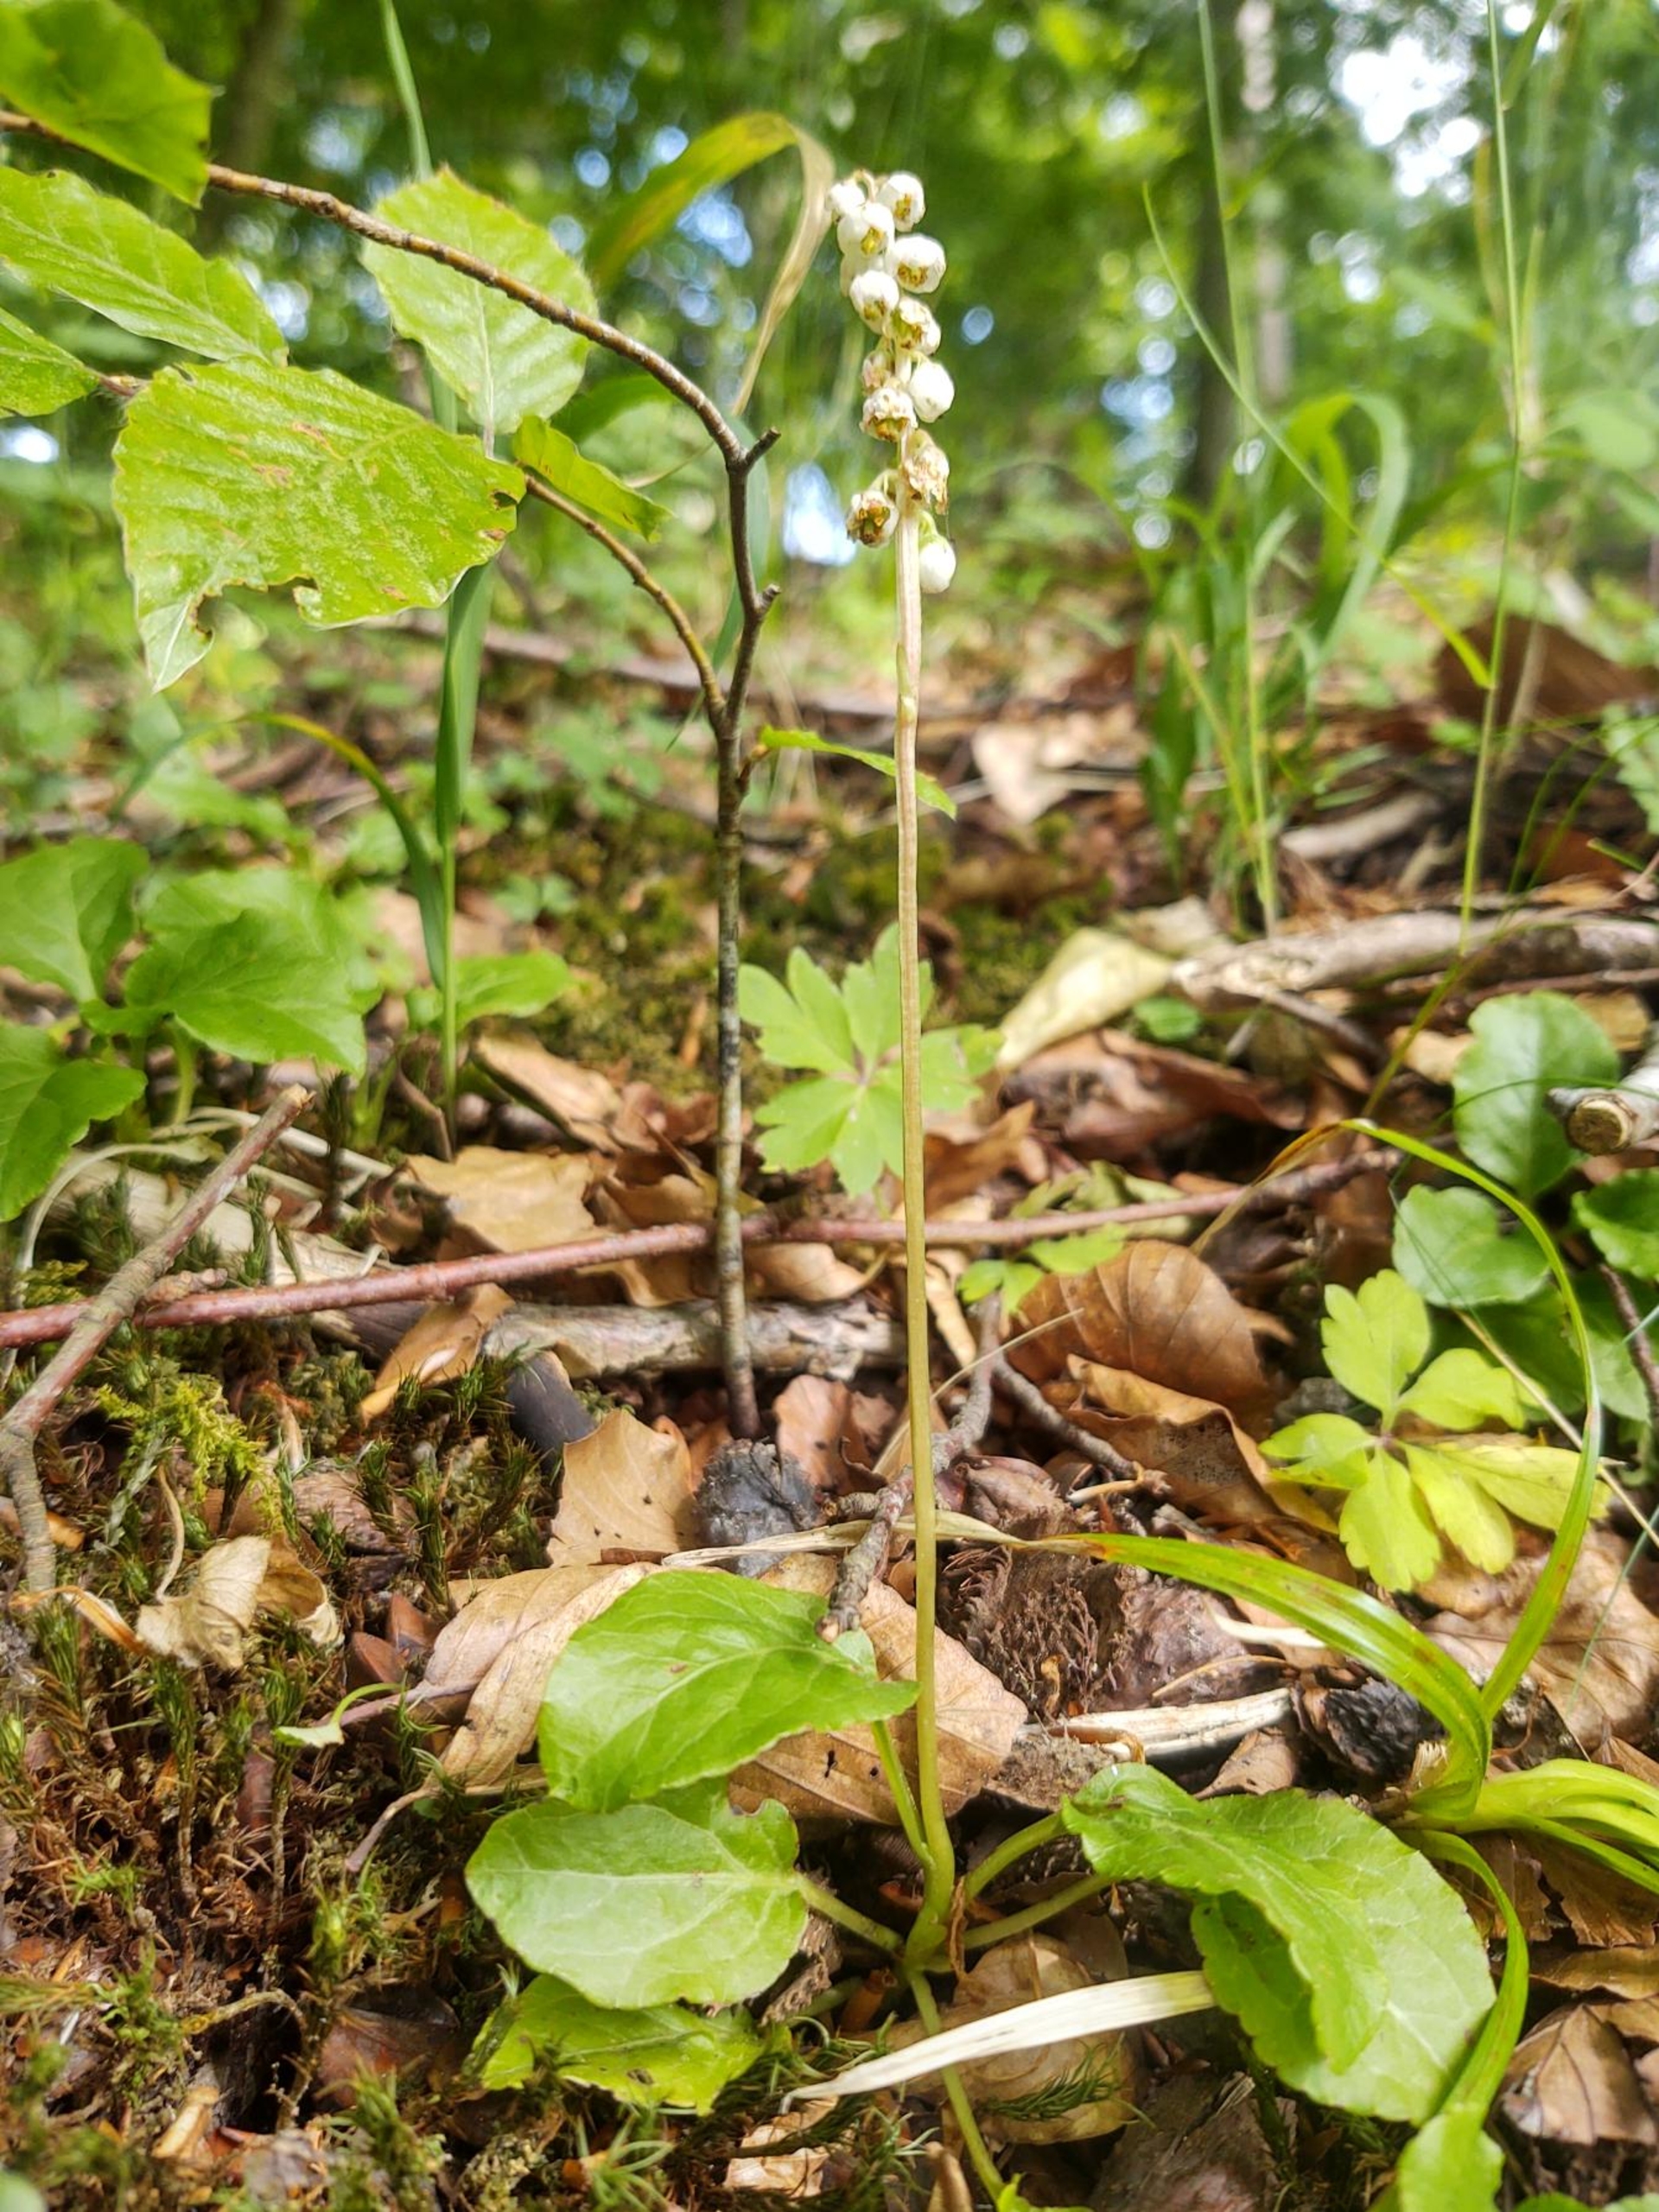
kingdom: Plantae
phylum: Tracheophyta
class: Magnoliopsida
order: Ericales
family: Ericaceae
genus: Pyrola
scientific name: Pyrola minor
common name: Liden vintergrøn
